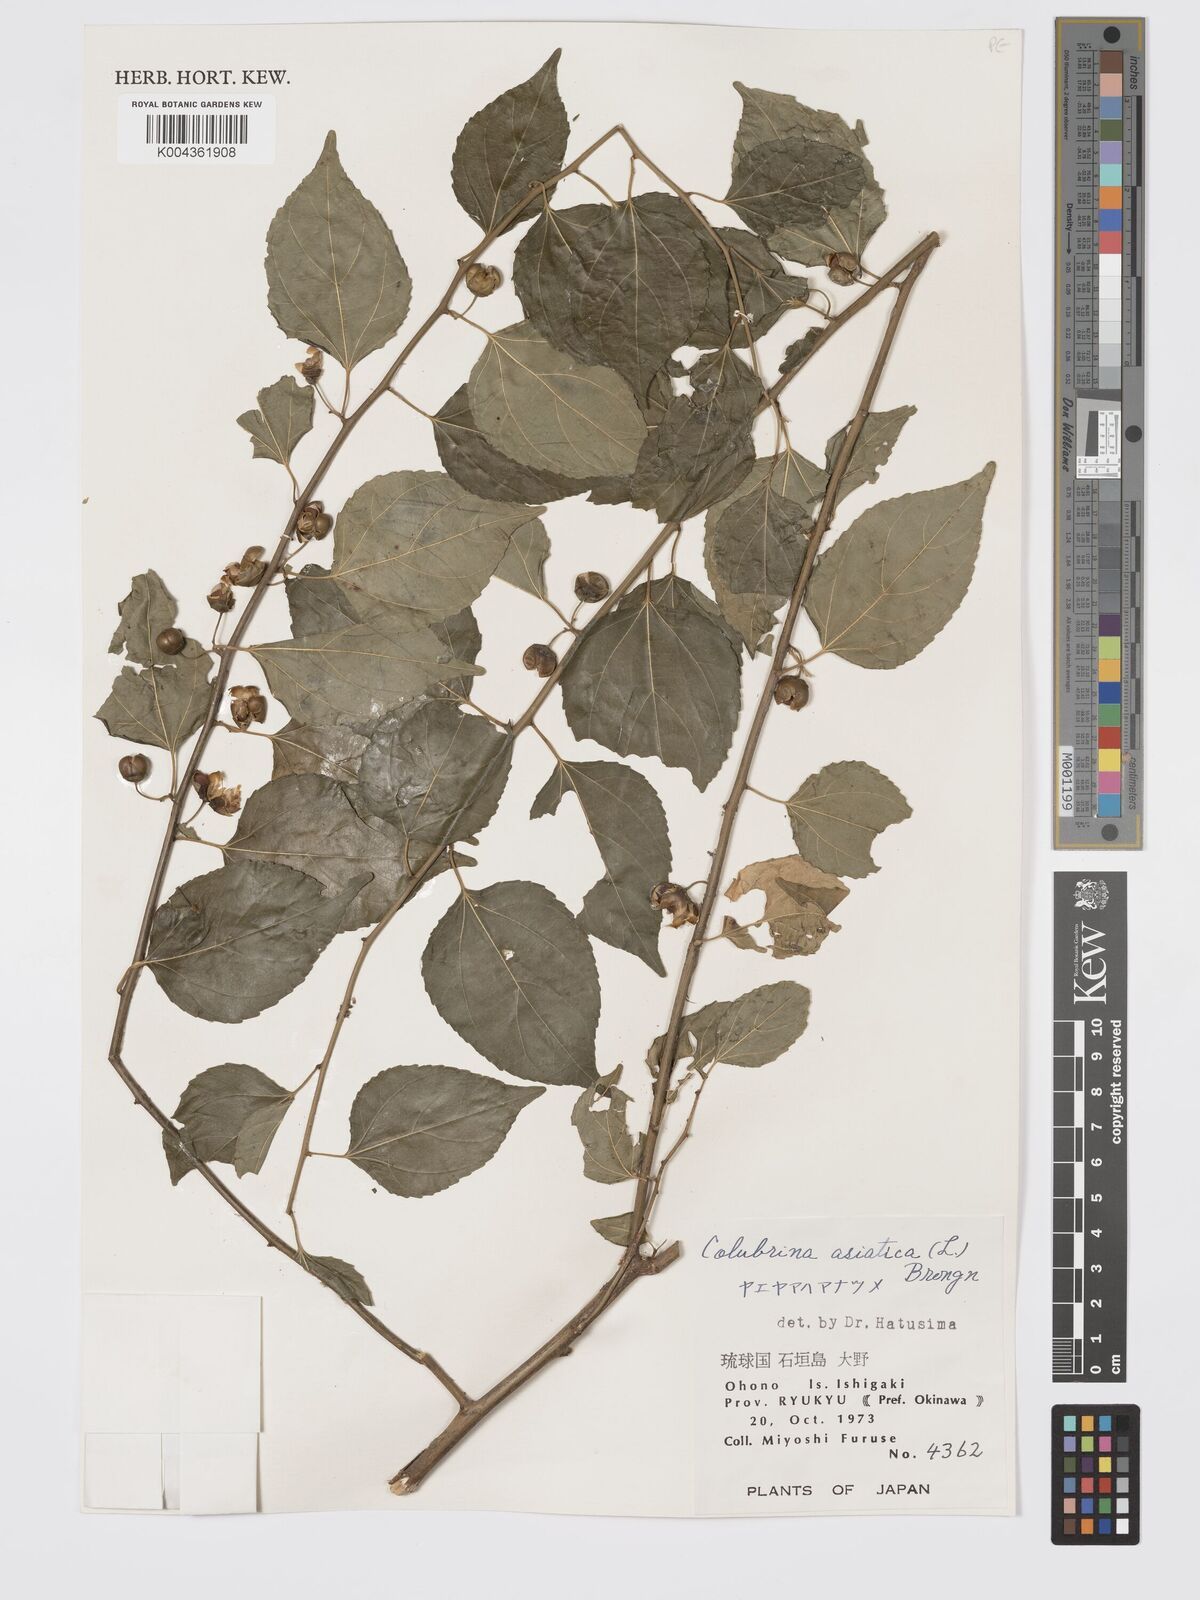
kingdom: Plantae
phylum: Tracheophyta
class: Magnoliopsida
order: Rosales
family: Rhamnaceae
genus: Colubrina
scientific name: Colubrina asiatica
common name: Asian nakedwood
